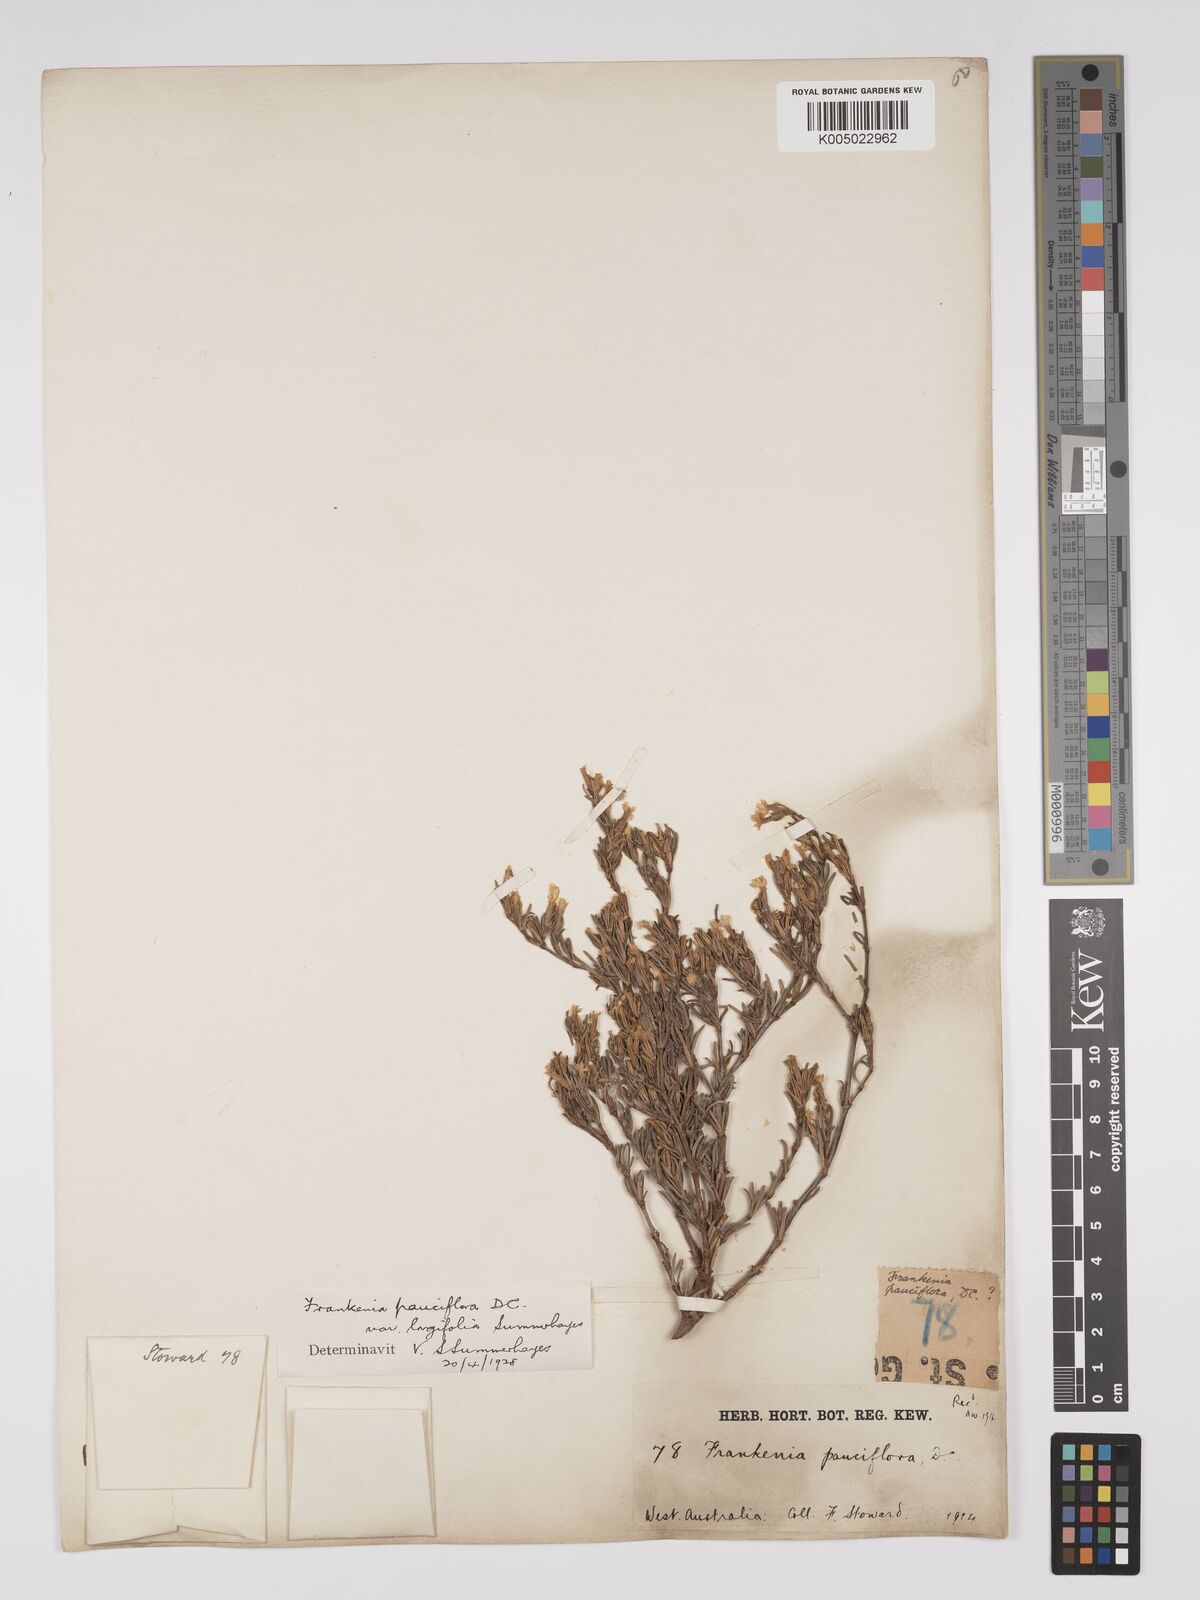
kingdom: Plantae
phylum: Tracheophyta
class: Magnoliopsida
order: Caryophyllales
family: Frankeniaceae
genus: Frankenia
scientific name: Frankenia pauciflora
